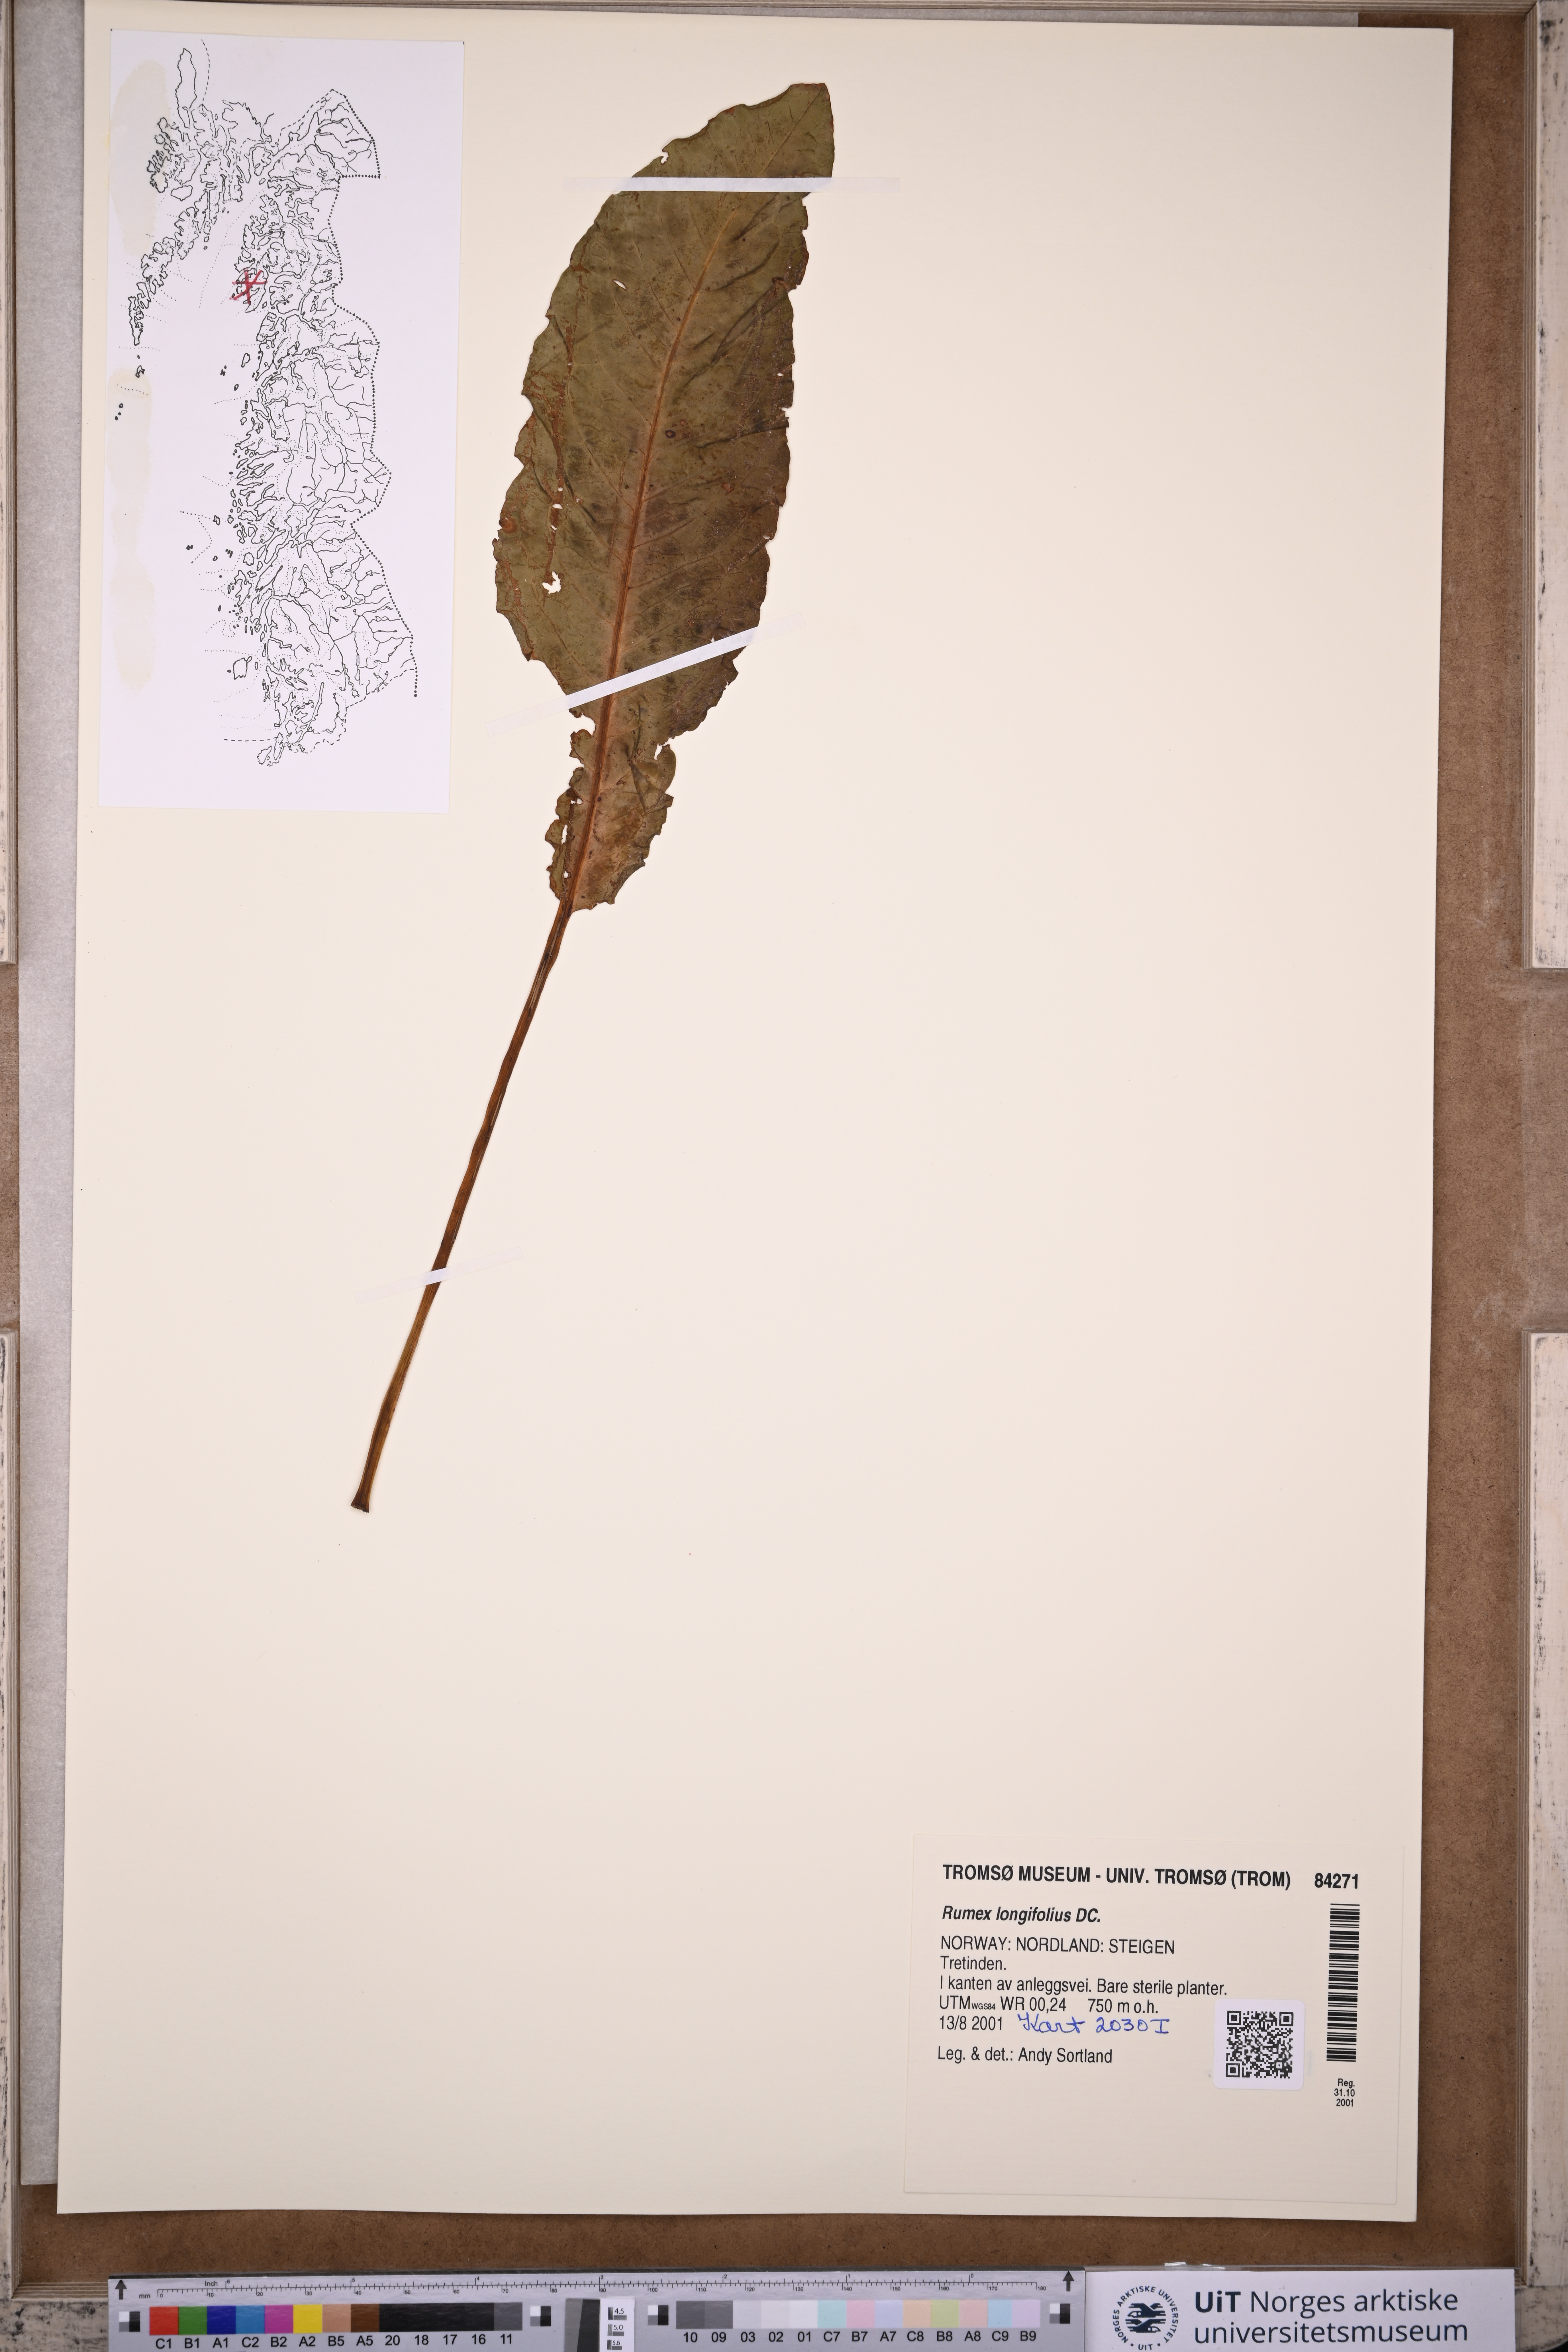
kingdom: Plantae
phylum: Tracheophyta
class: Magnoliopsida
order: Caryophyllales
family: Polygonaceae
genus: Rumex
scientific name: Rumex longifolius
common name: Dooryard dock
